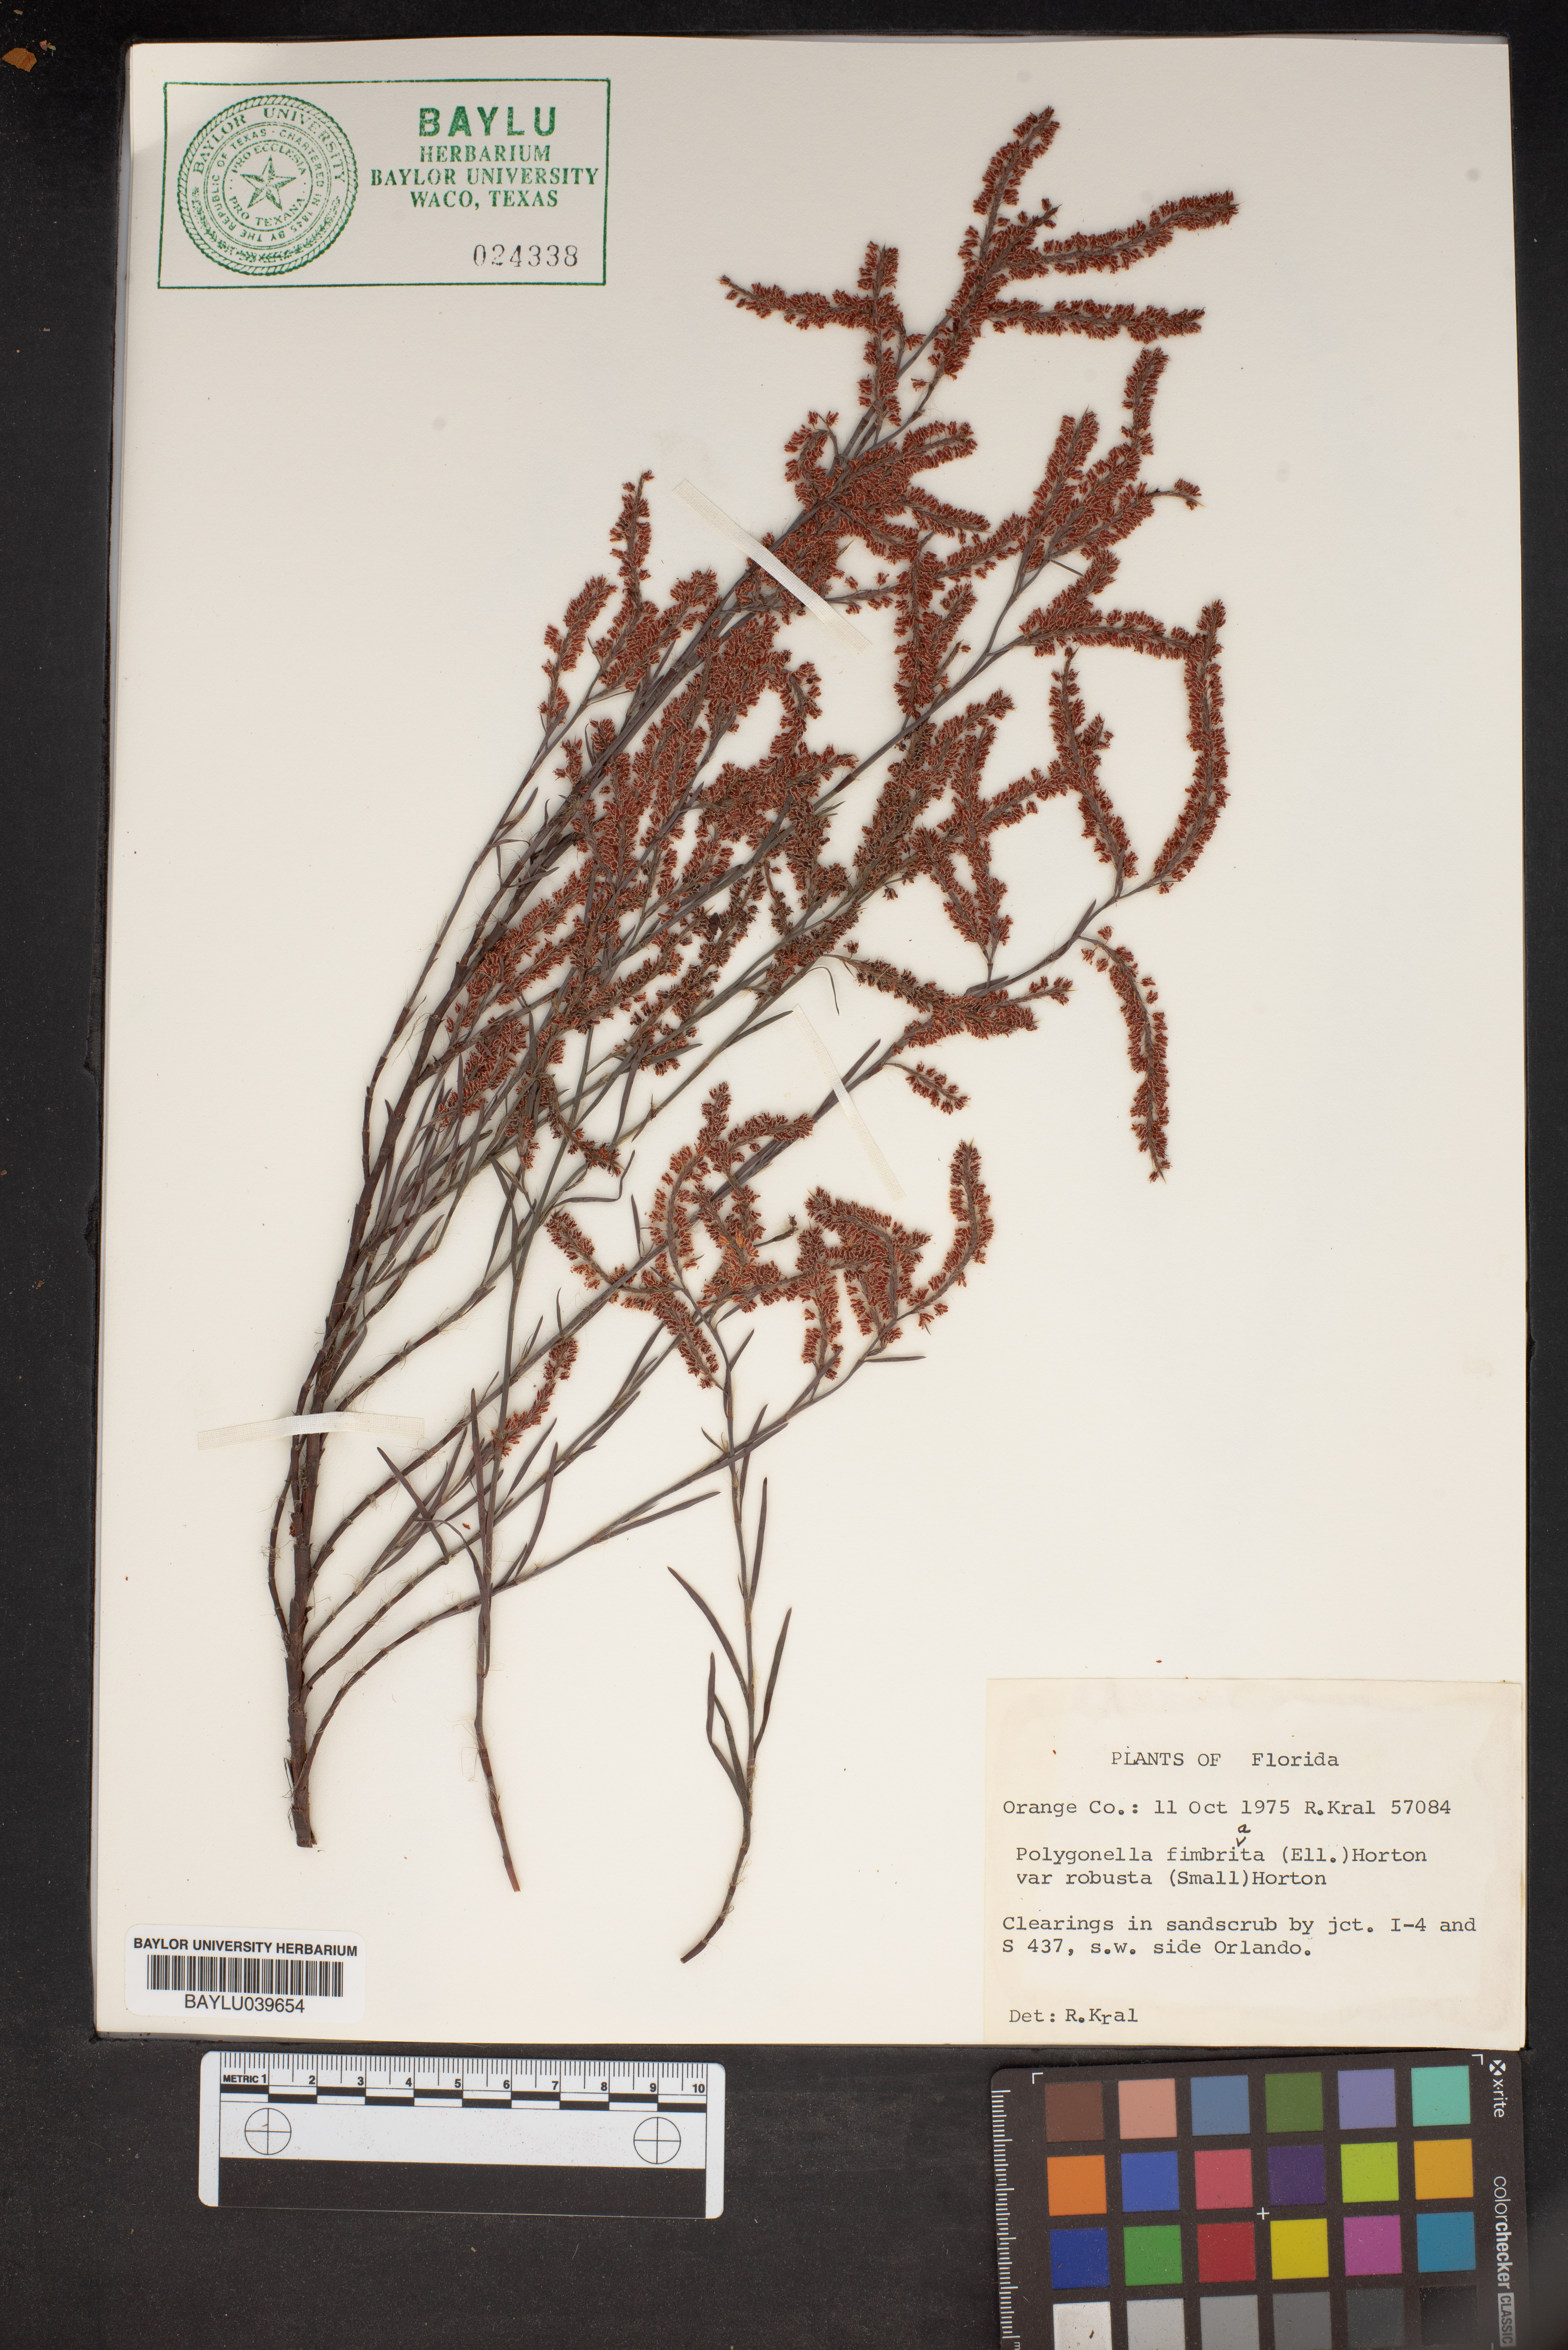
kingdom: Plantae
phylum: Tracheophyta
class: Magnoliopsida
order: Caryophyllales
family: Polygonaceae
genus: Polygonella
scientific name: Polygonella robusta
